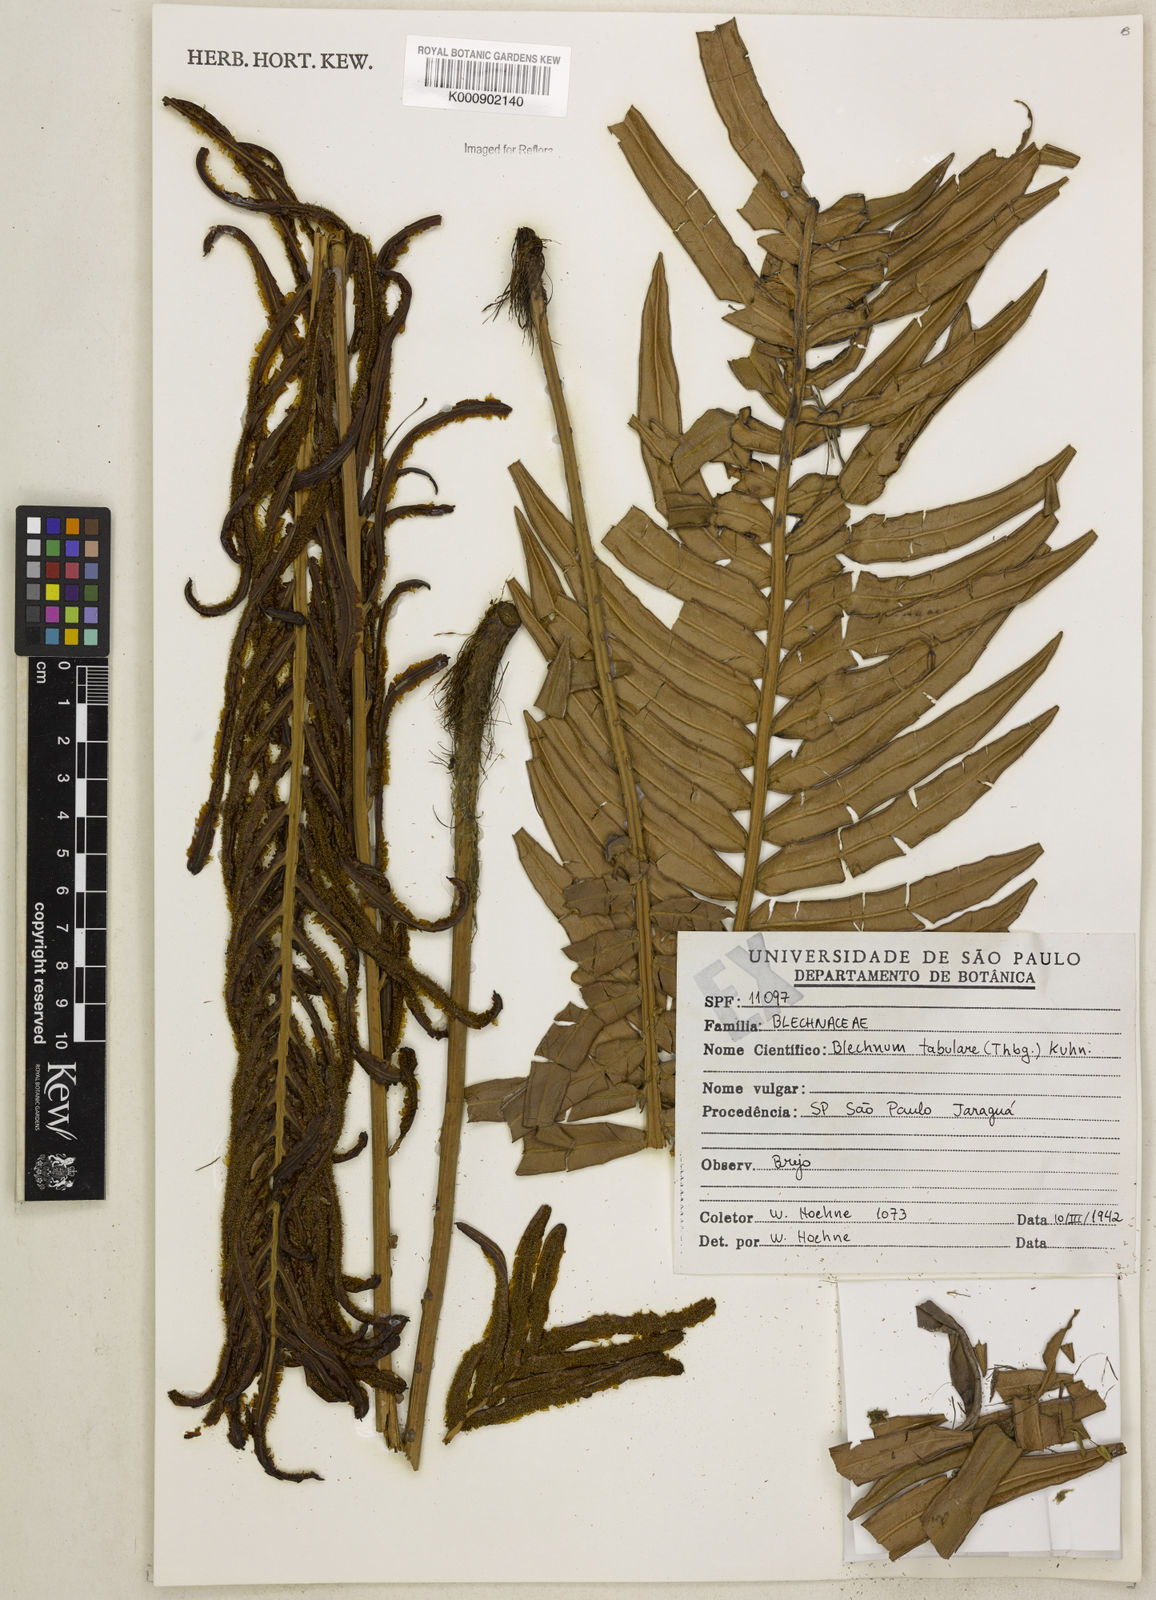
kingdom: Plantae
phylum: Tracheophyta
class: Polypodiopsida
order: Polypodiales
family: Blechnaceae
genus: Lomariocycas
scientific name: Lomariocycas obtusifolia
